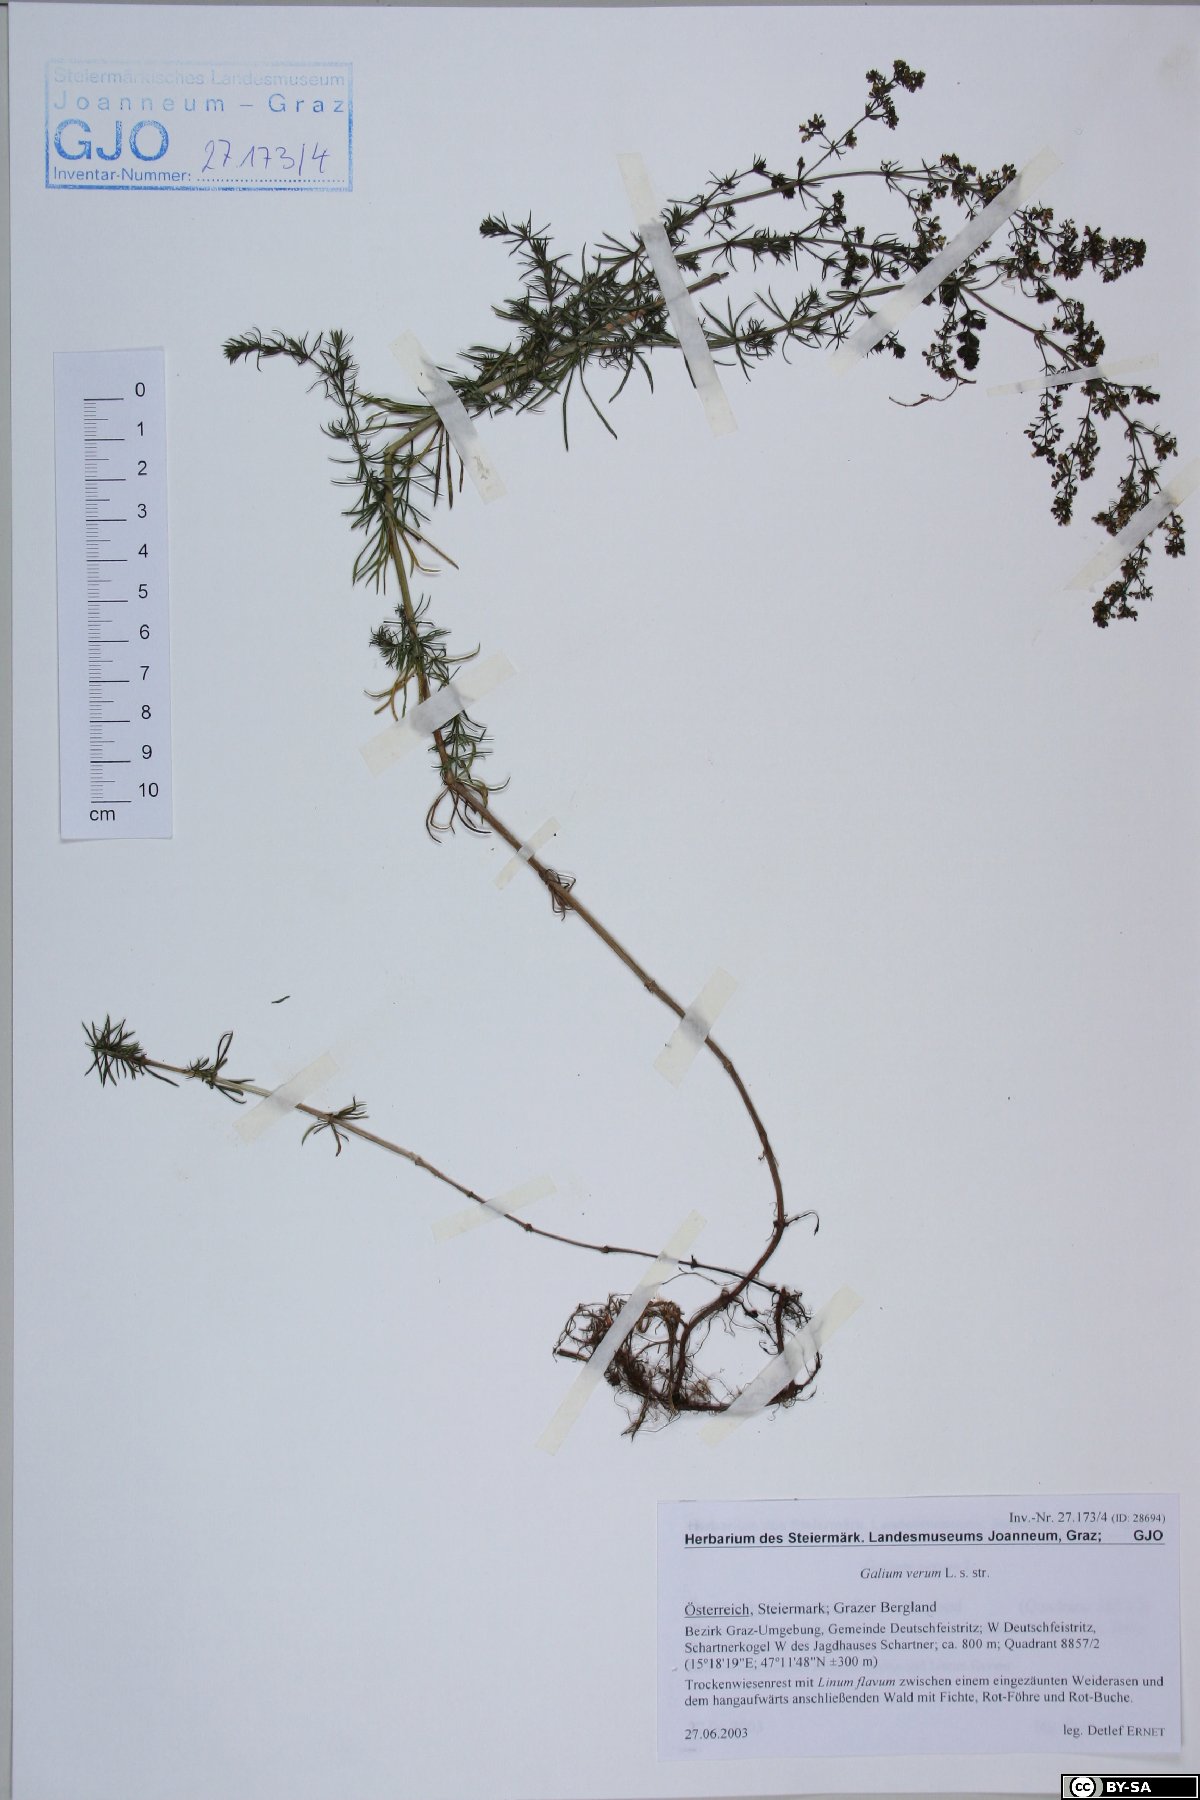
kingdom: Plantae
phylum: Tracheophyta
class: Magnoliopsida
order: Gentianales
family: Rubiaceae
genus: Galium
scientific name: Galium verum
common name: Lady's bedstraw
